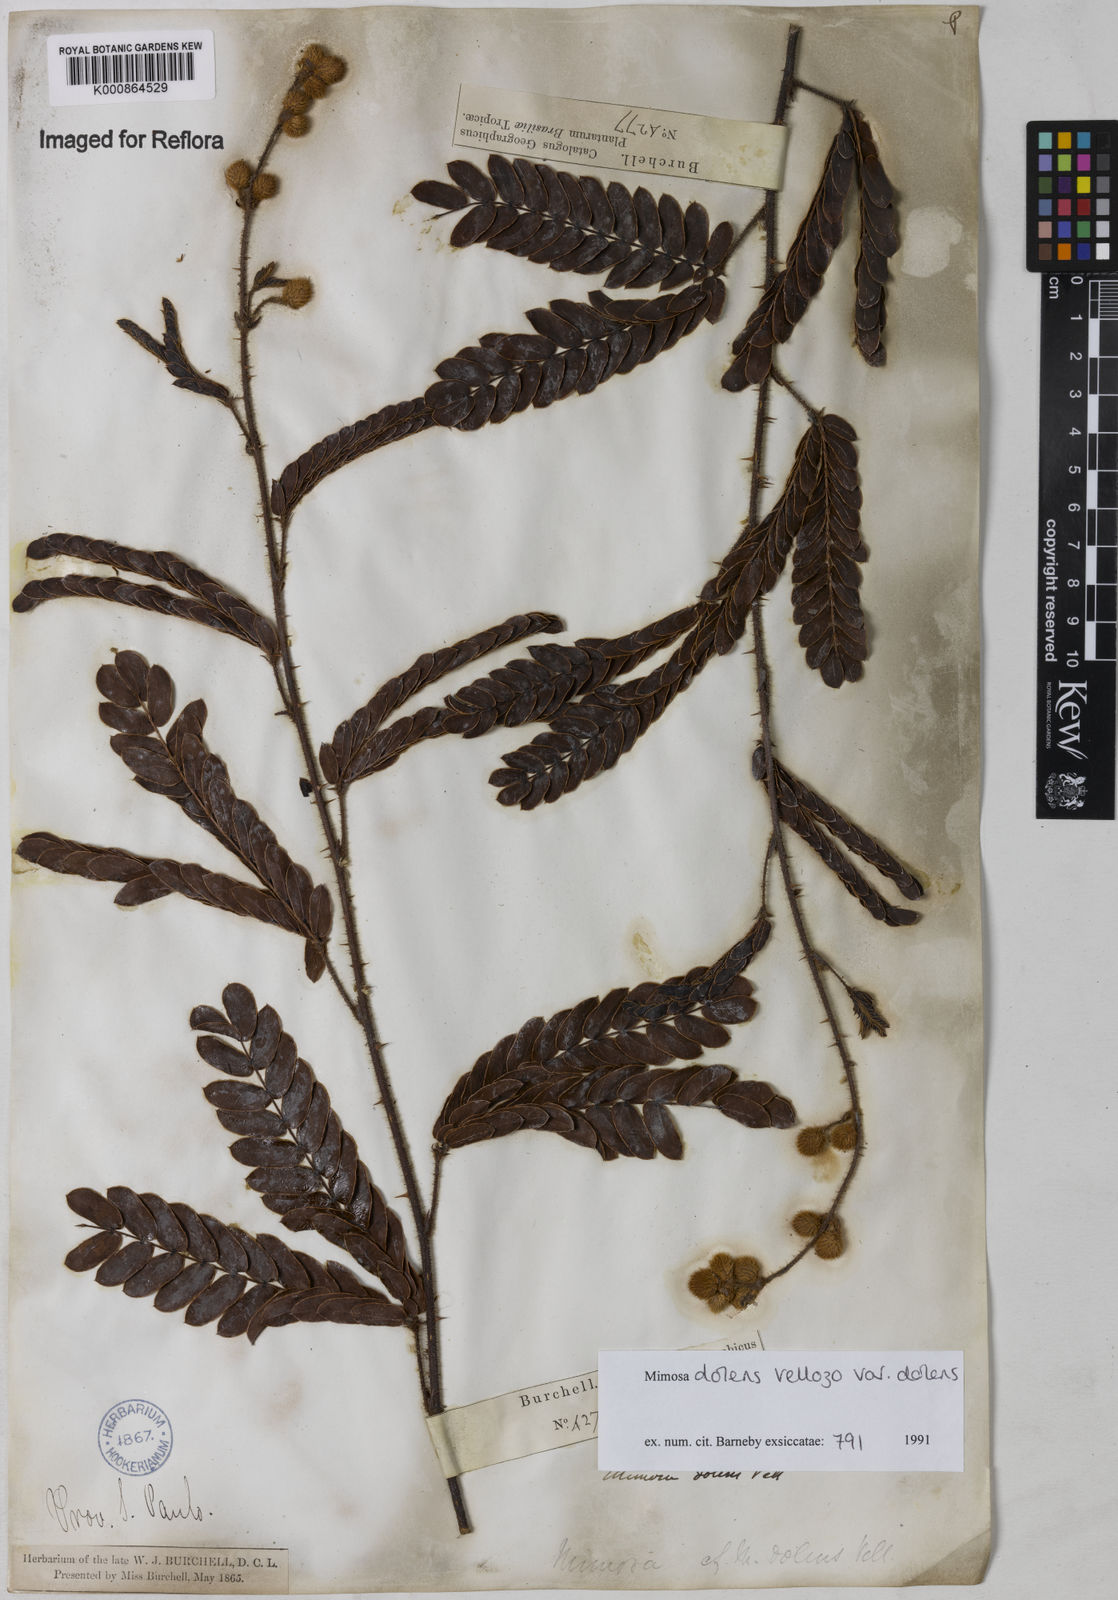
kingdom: Plantae
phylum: Tracheophyta
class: Magnoliopsida
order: Fabales
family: Fabaceae
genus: Mimosa
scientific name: Mimosa dolens
